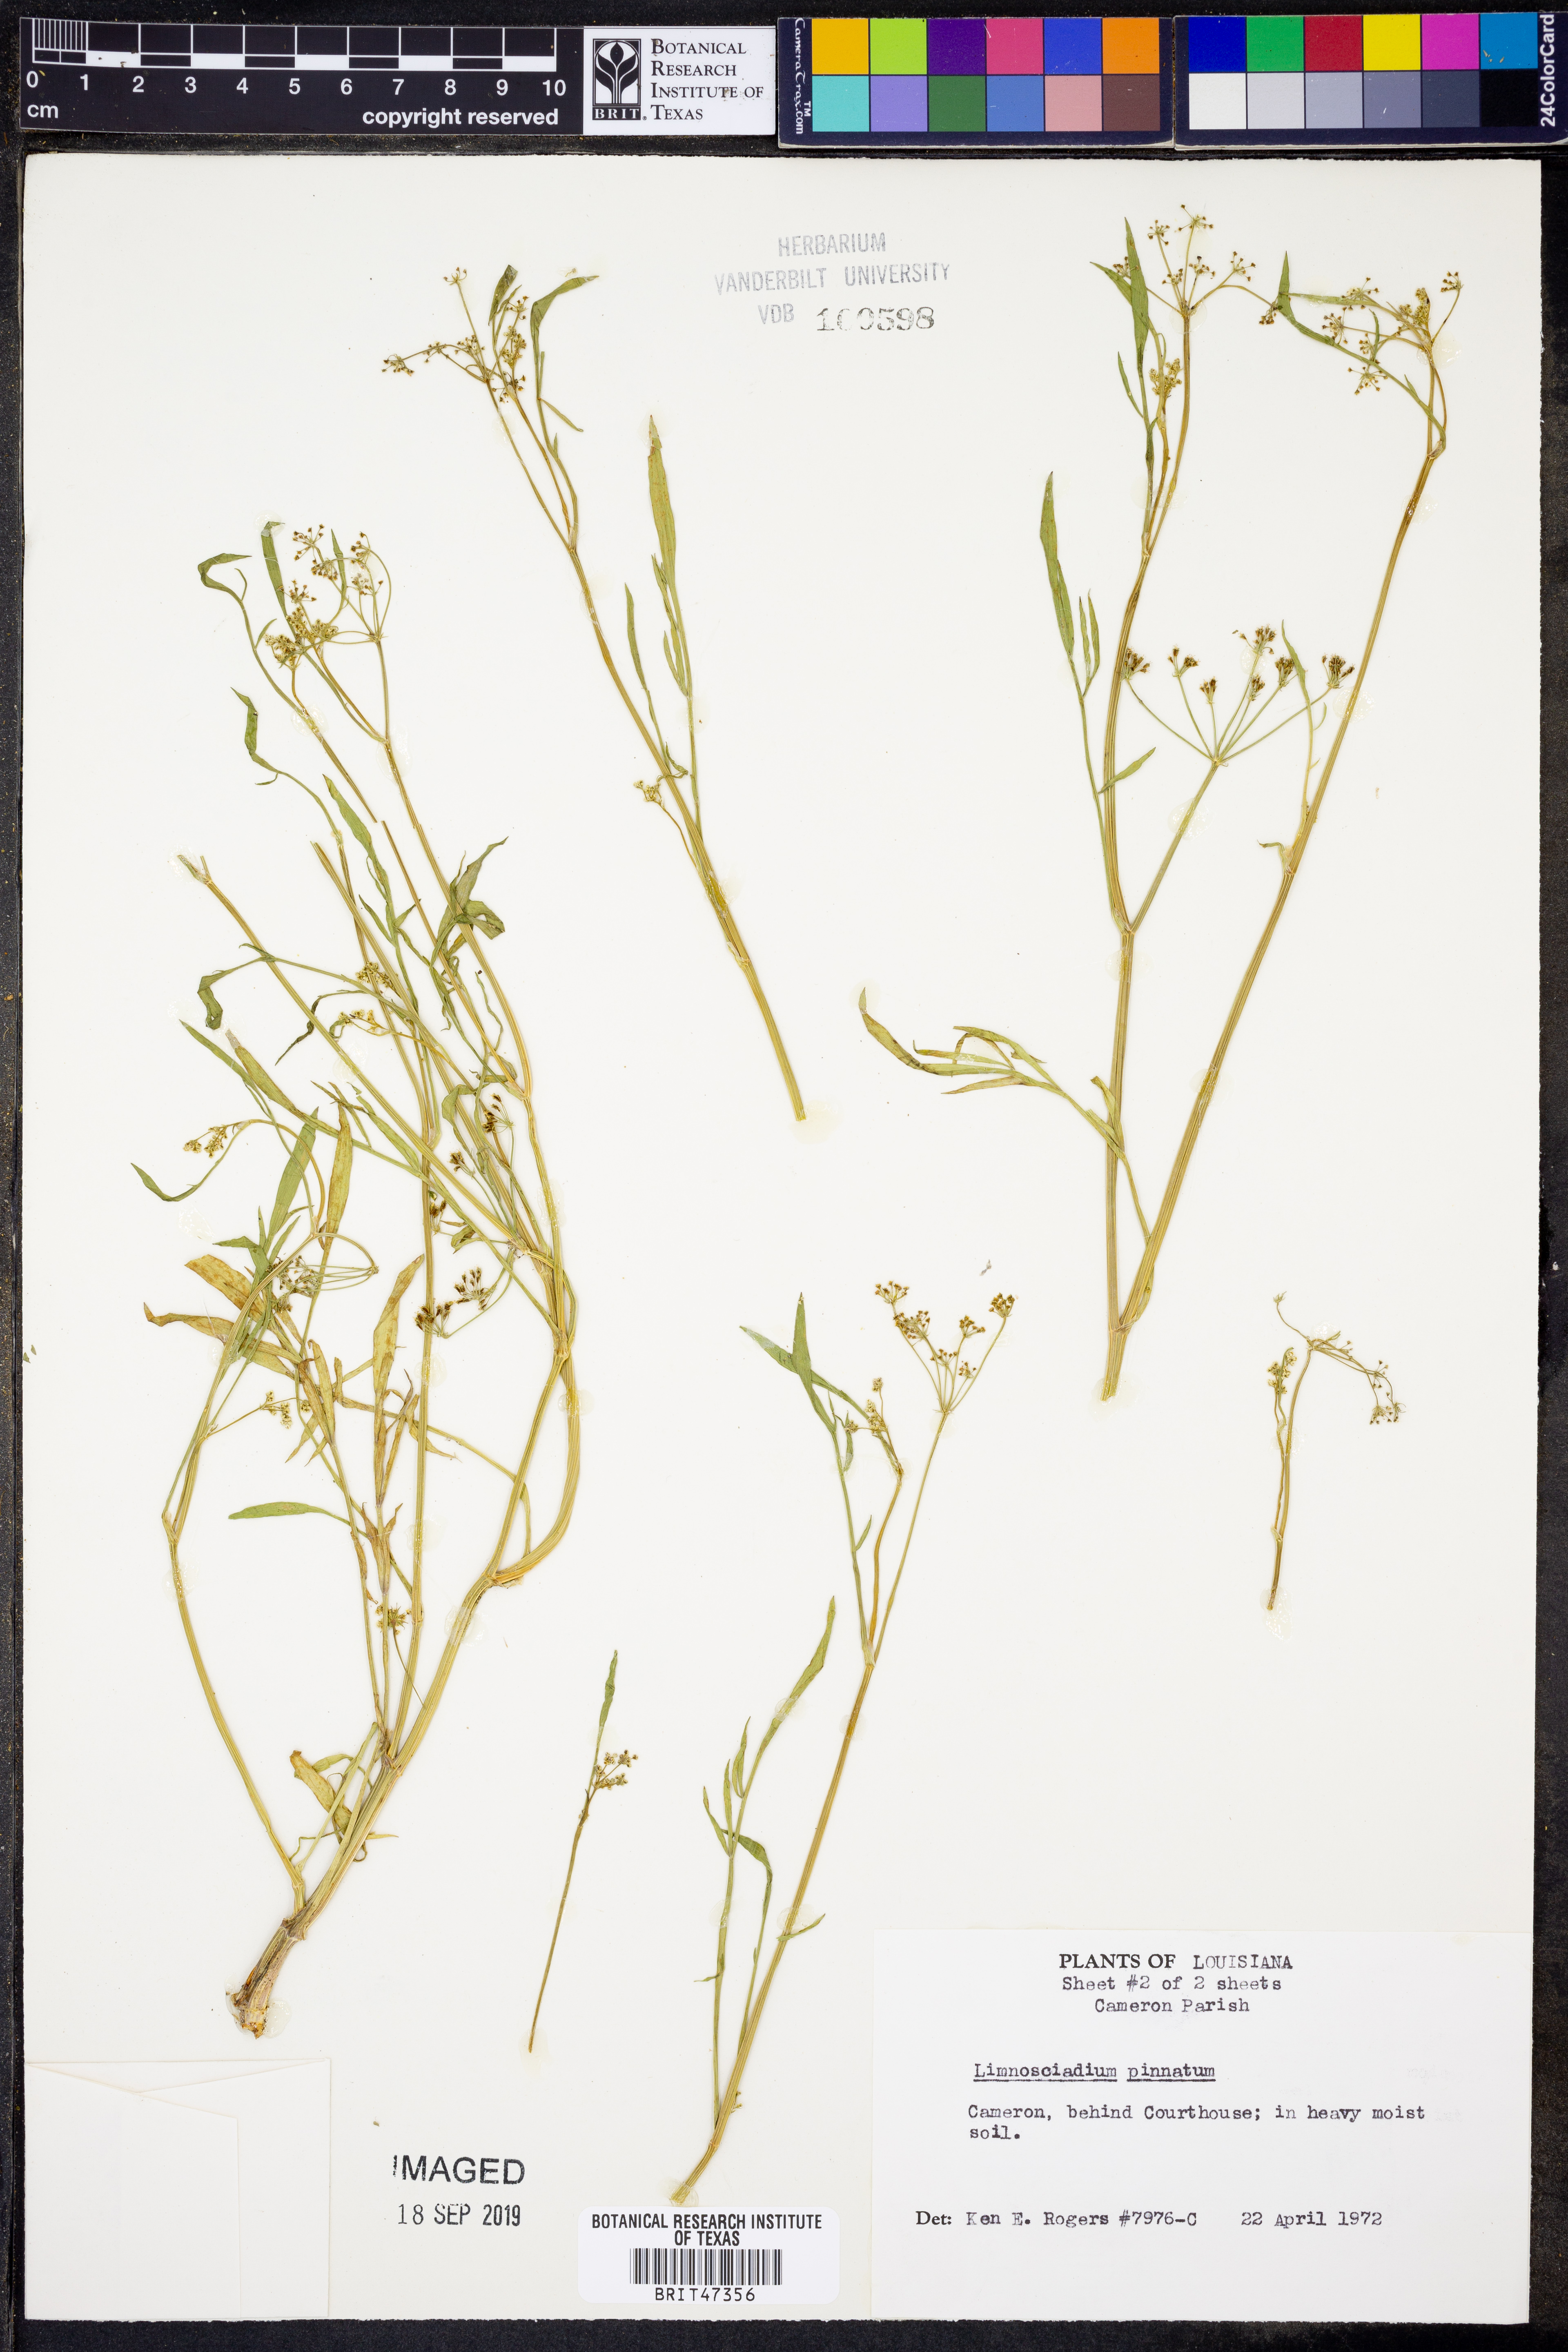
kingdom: Plantae
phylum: Tracheophyta
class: Magnoliopsida
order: Apiales
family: Apiaceae
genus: Limnosciadium
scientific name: Limnosciadium pinnatum
